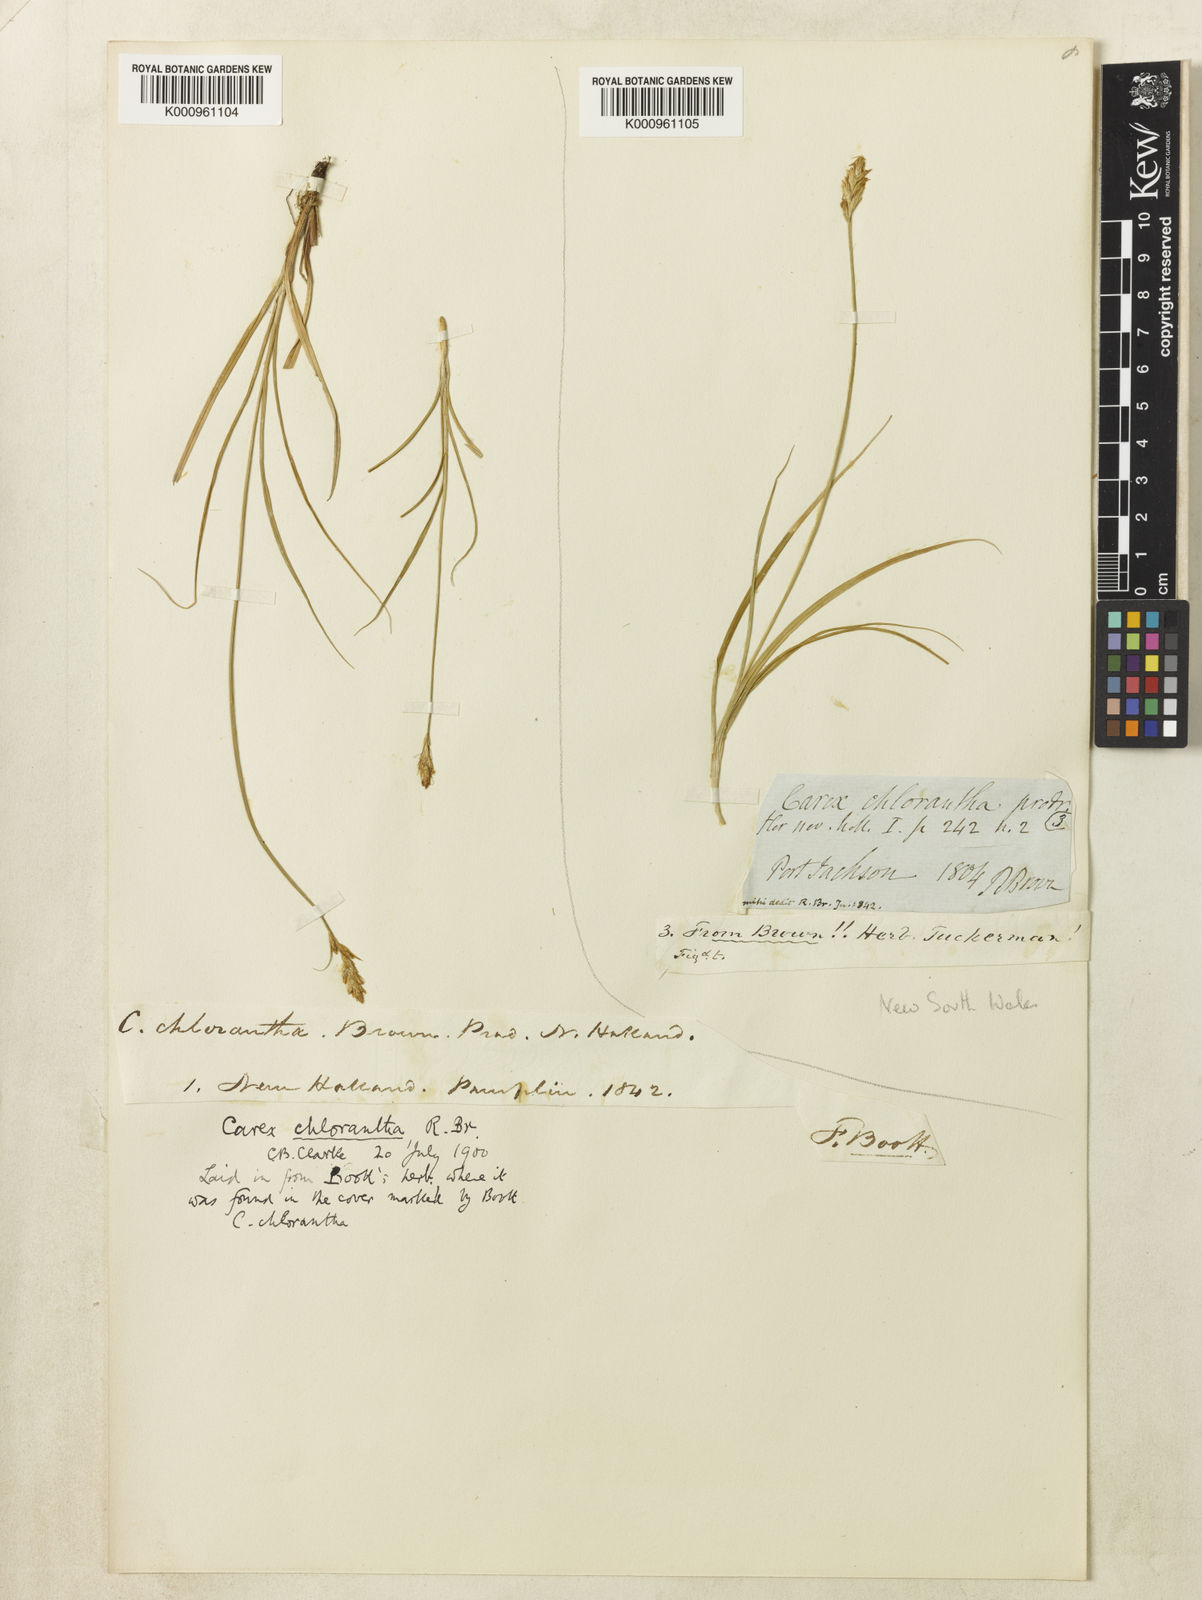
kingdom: Plantae
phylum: Tracheophyta
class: Liliopsida
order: Poales
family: Cyperaceae
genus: Carex
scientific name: Carex chlorantha
